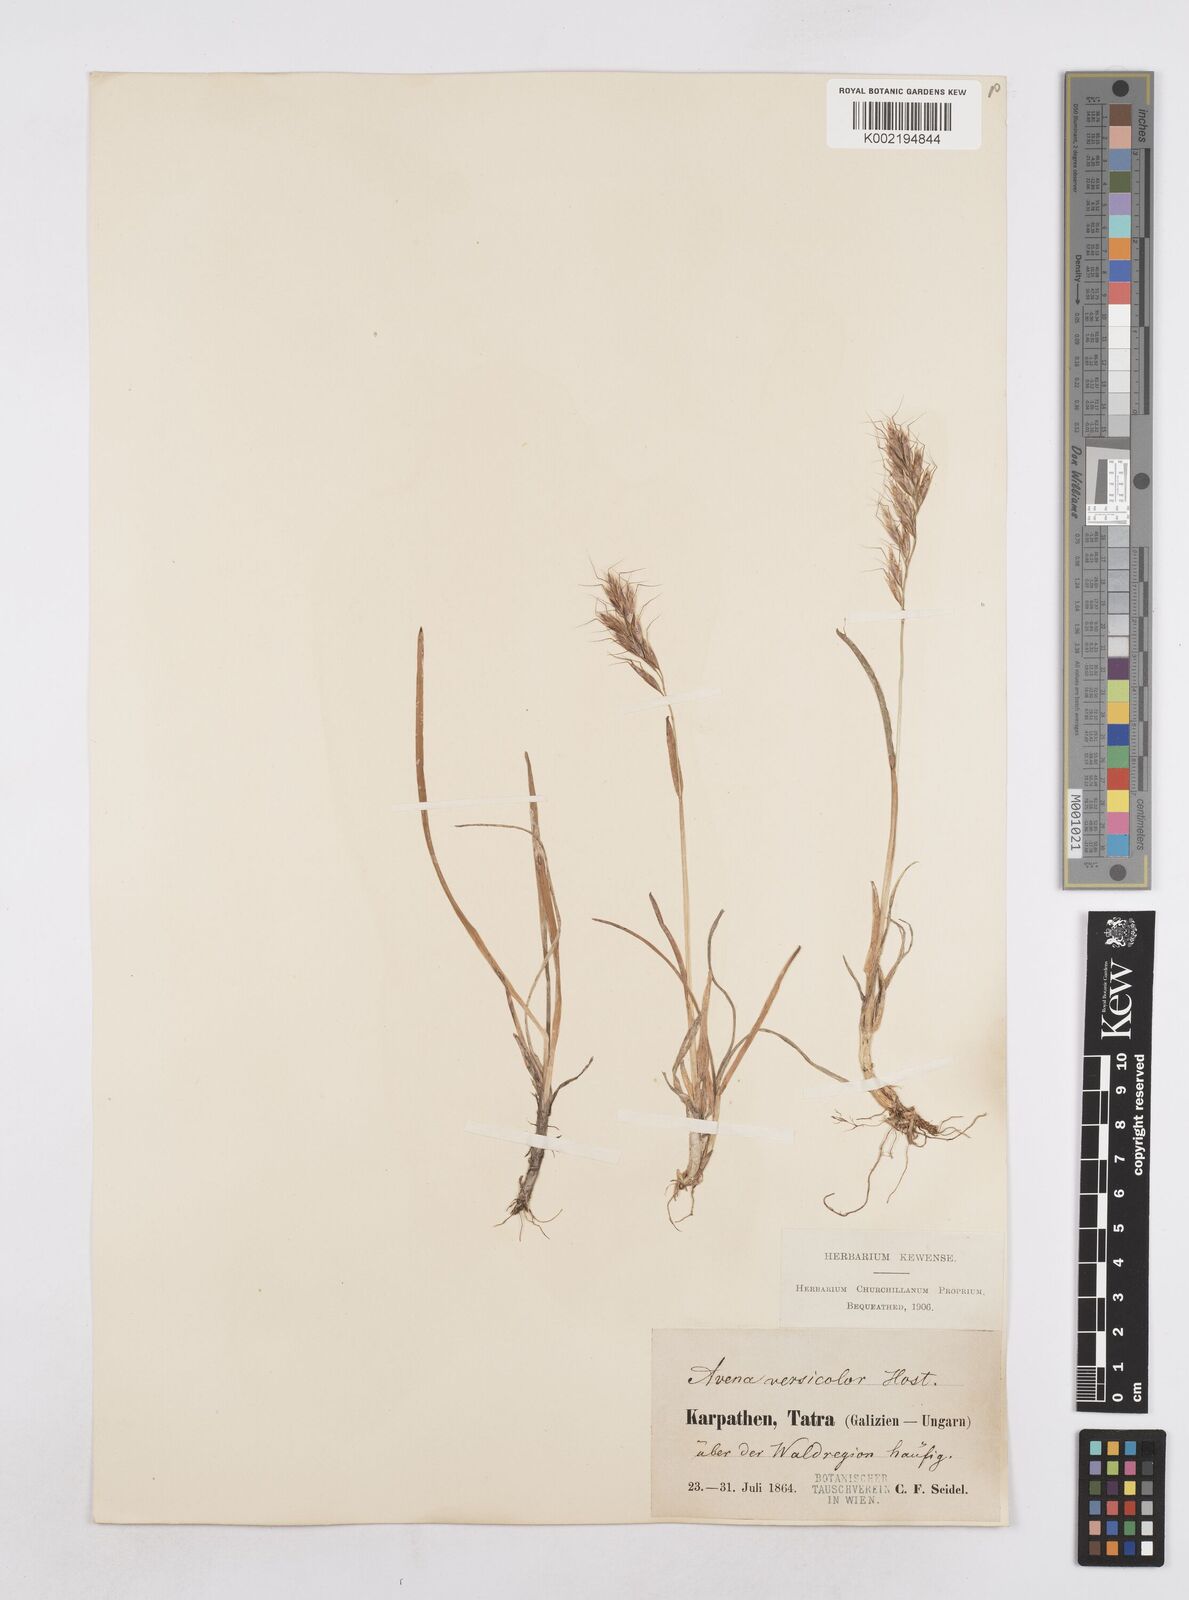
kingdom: Plantae
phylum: Tracheophyta
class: Liliopsida
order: Poales
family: Poaceae
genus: Helictochloa
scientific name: Helictochloa versicolor
